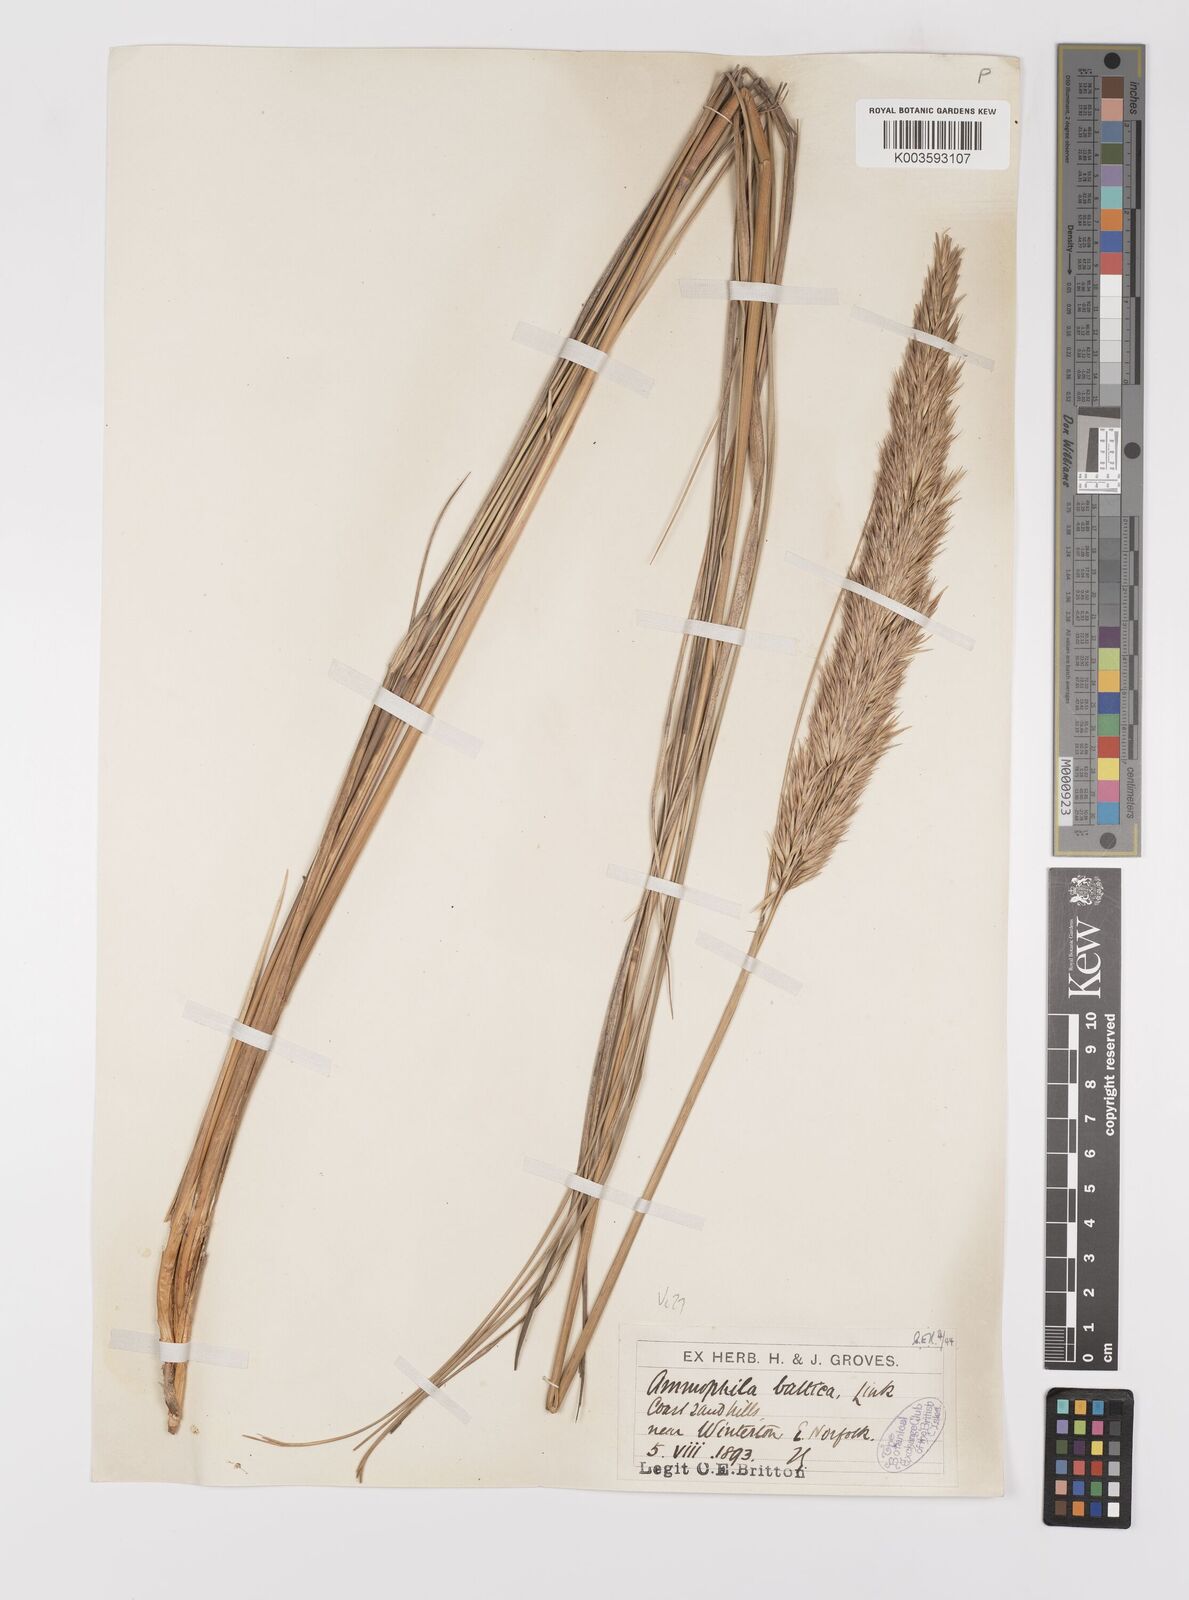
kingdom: Plantae
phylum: Tracheophyta
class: Liliopsida
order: Poales
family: Poaceae
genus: Calamagrostis
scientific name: Calamagrostis baltica
